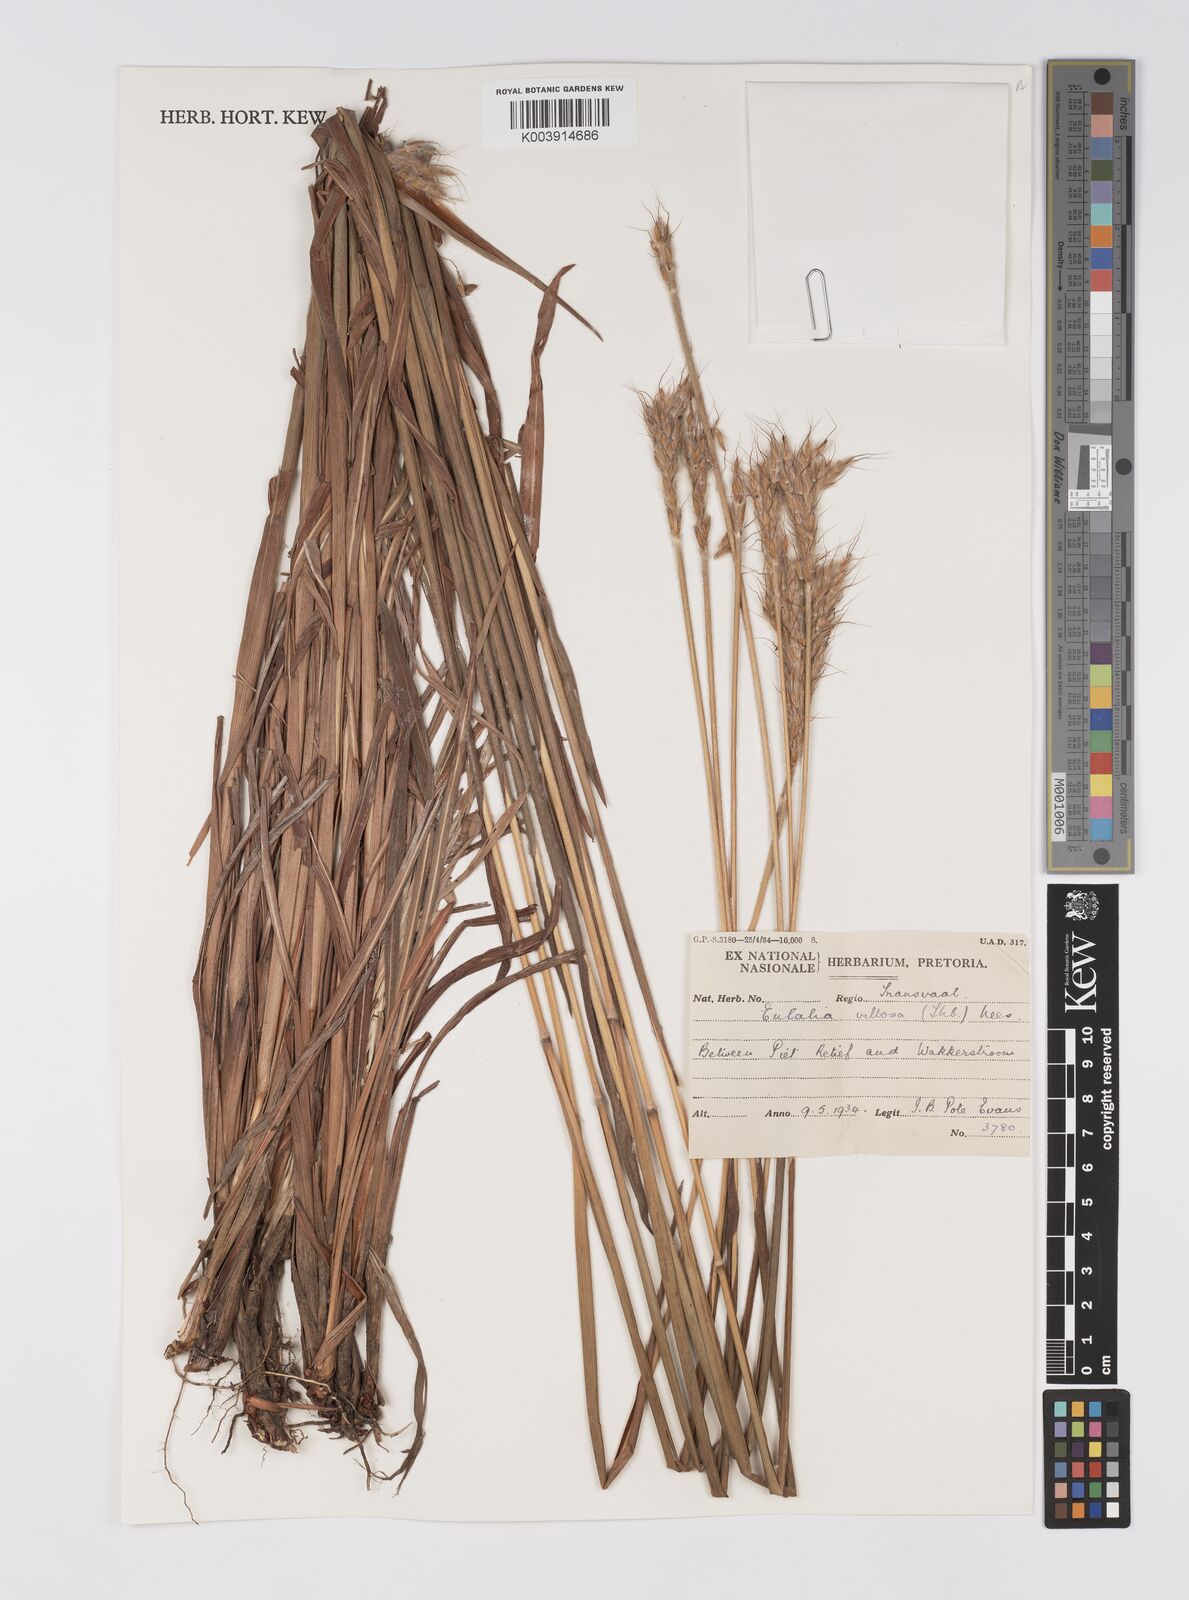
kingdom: Plantae
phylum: Tracheophyta
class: Liliopsida
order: Poales
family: Poaceae
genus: Eulalia
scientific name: Eulalia villosa
